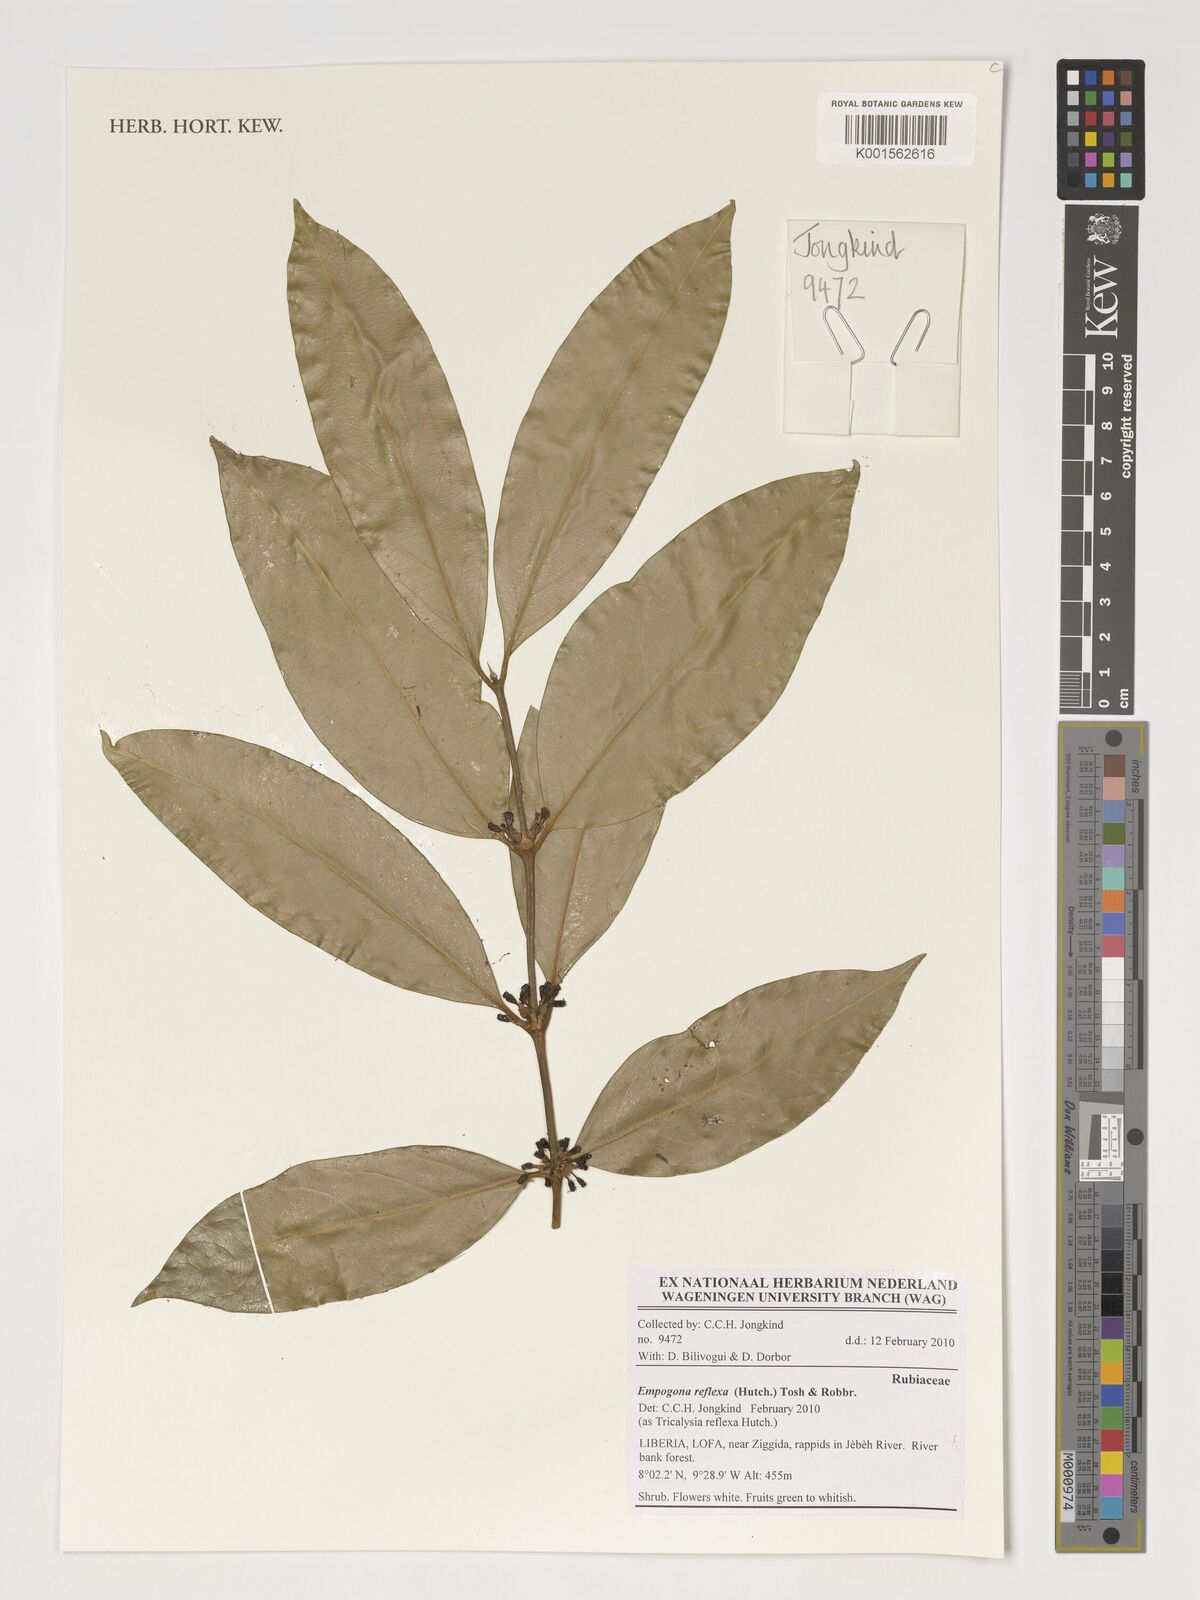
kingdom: Plantae
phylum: Tracheophyta
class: Magnoliopsida
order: Gentianales
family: Rubiaceae
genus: Empogona
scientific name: Empogona reflexa
